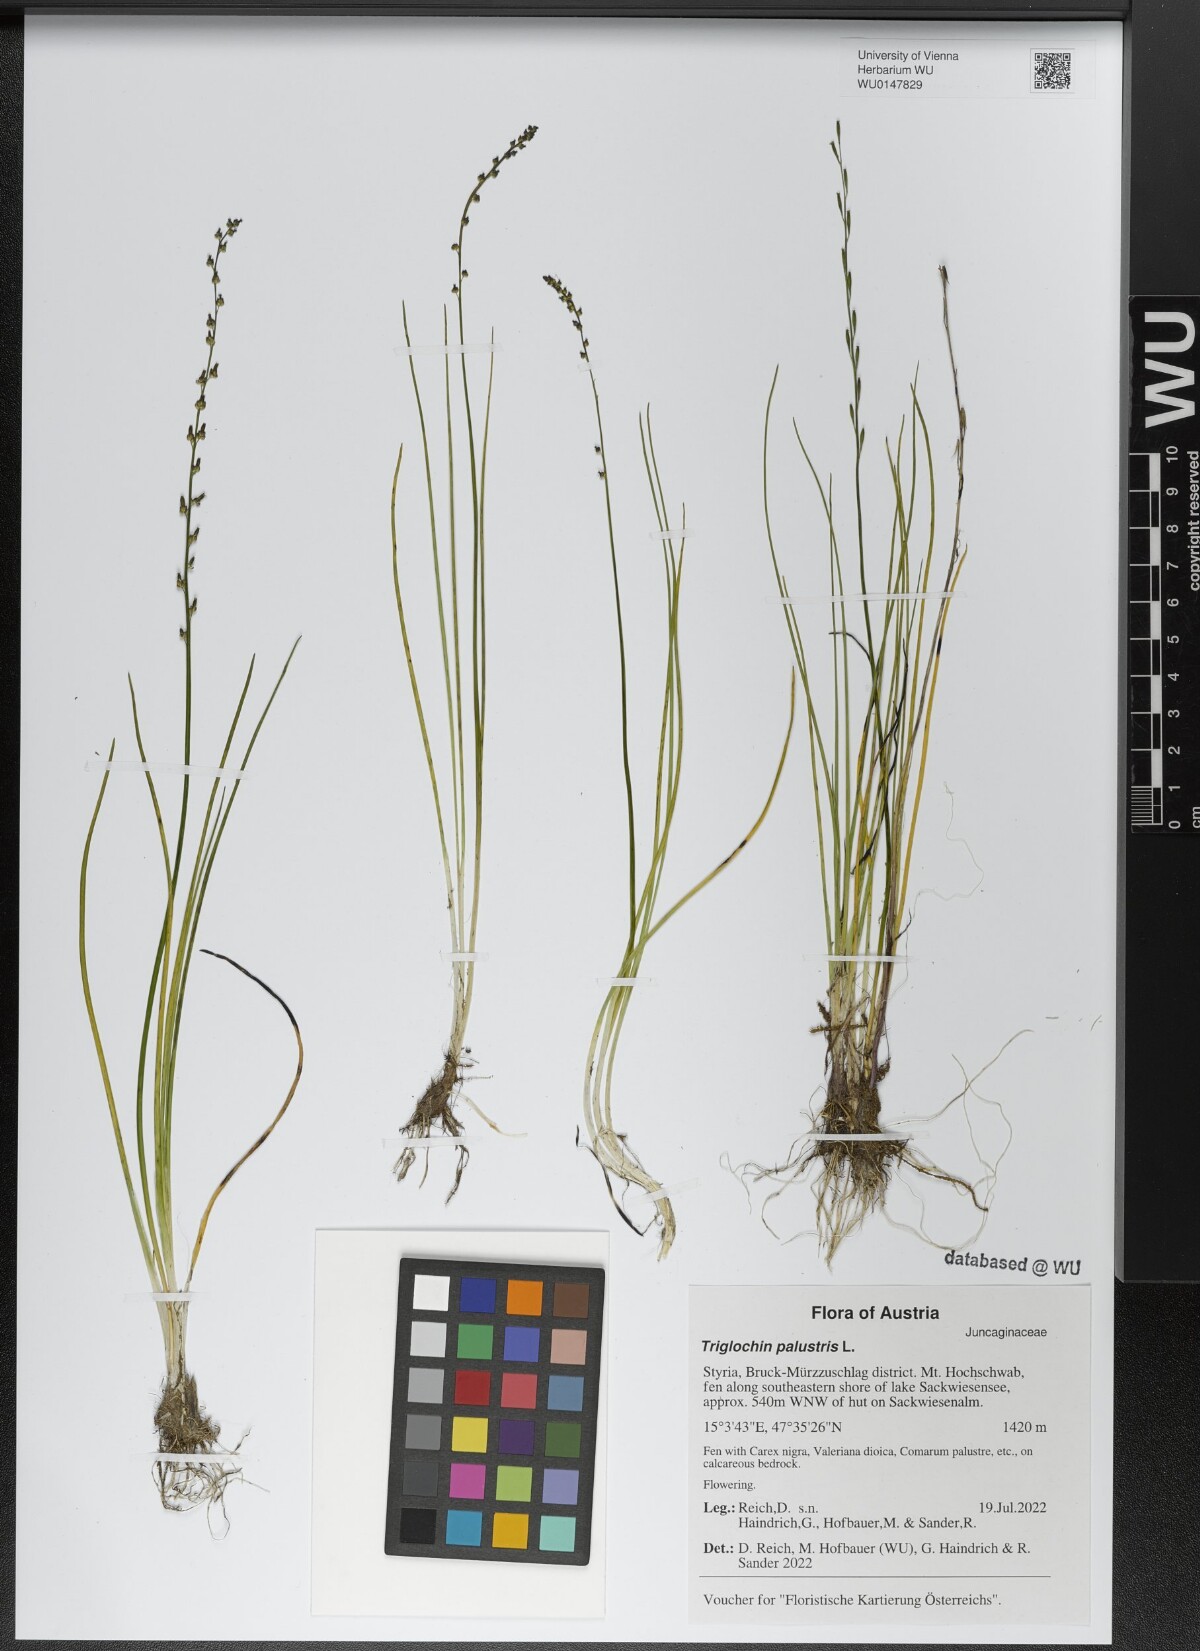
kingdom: Plantae
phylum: Tracheophyta
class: Liliopsida
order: Alismatales
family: Juncaginaceae
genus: Triglochin
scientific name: Triglochin palustris
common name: Marsh arrowgrass
